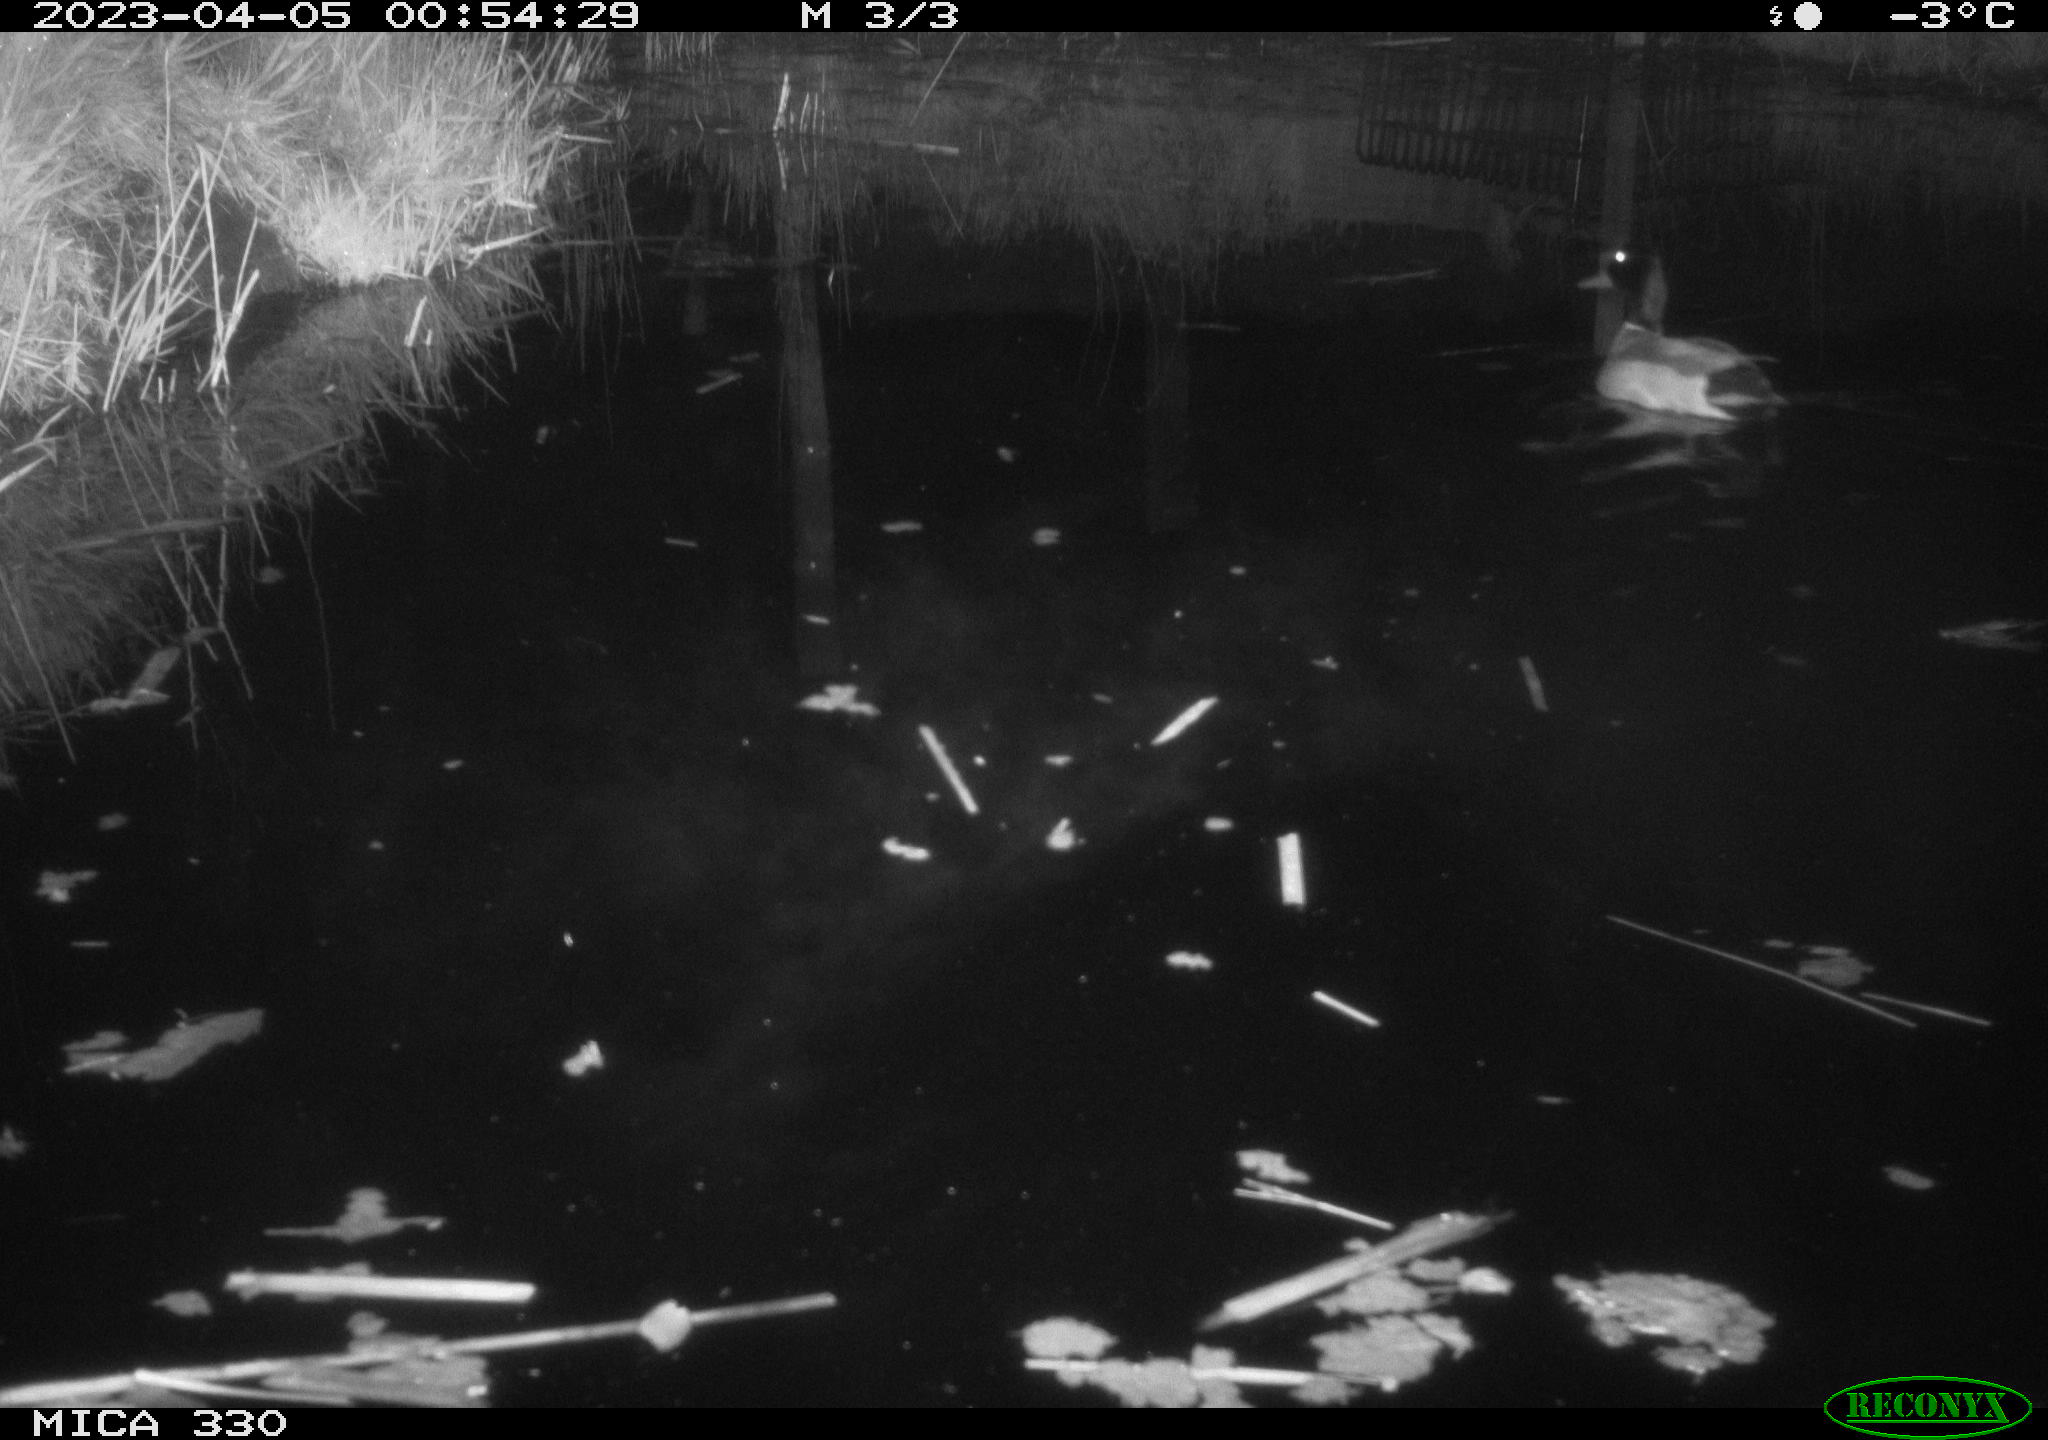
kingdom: Animalia
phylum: Chordata
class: Aves
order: Anseriformes
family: Anatidae
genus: Anas
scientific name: Anas
